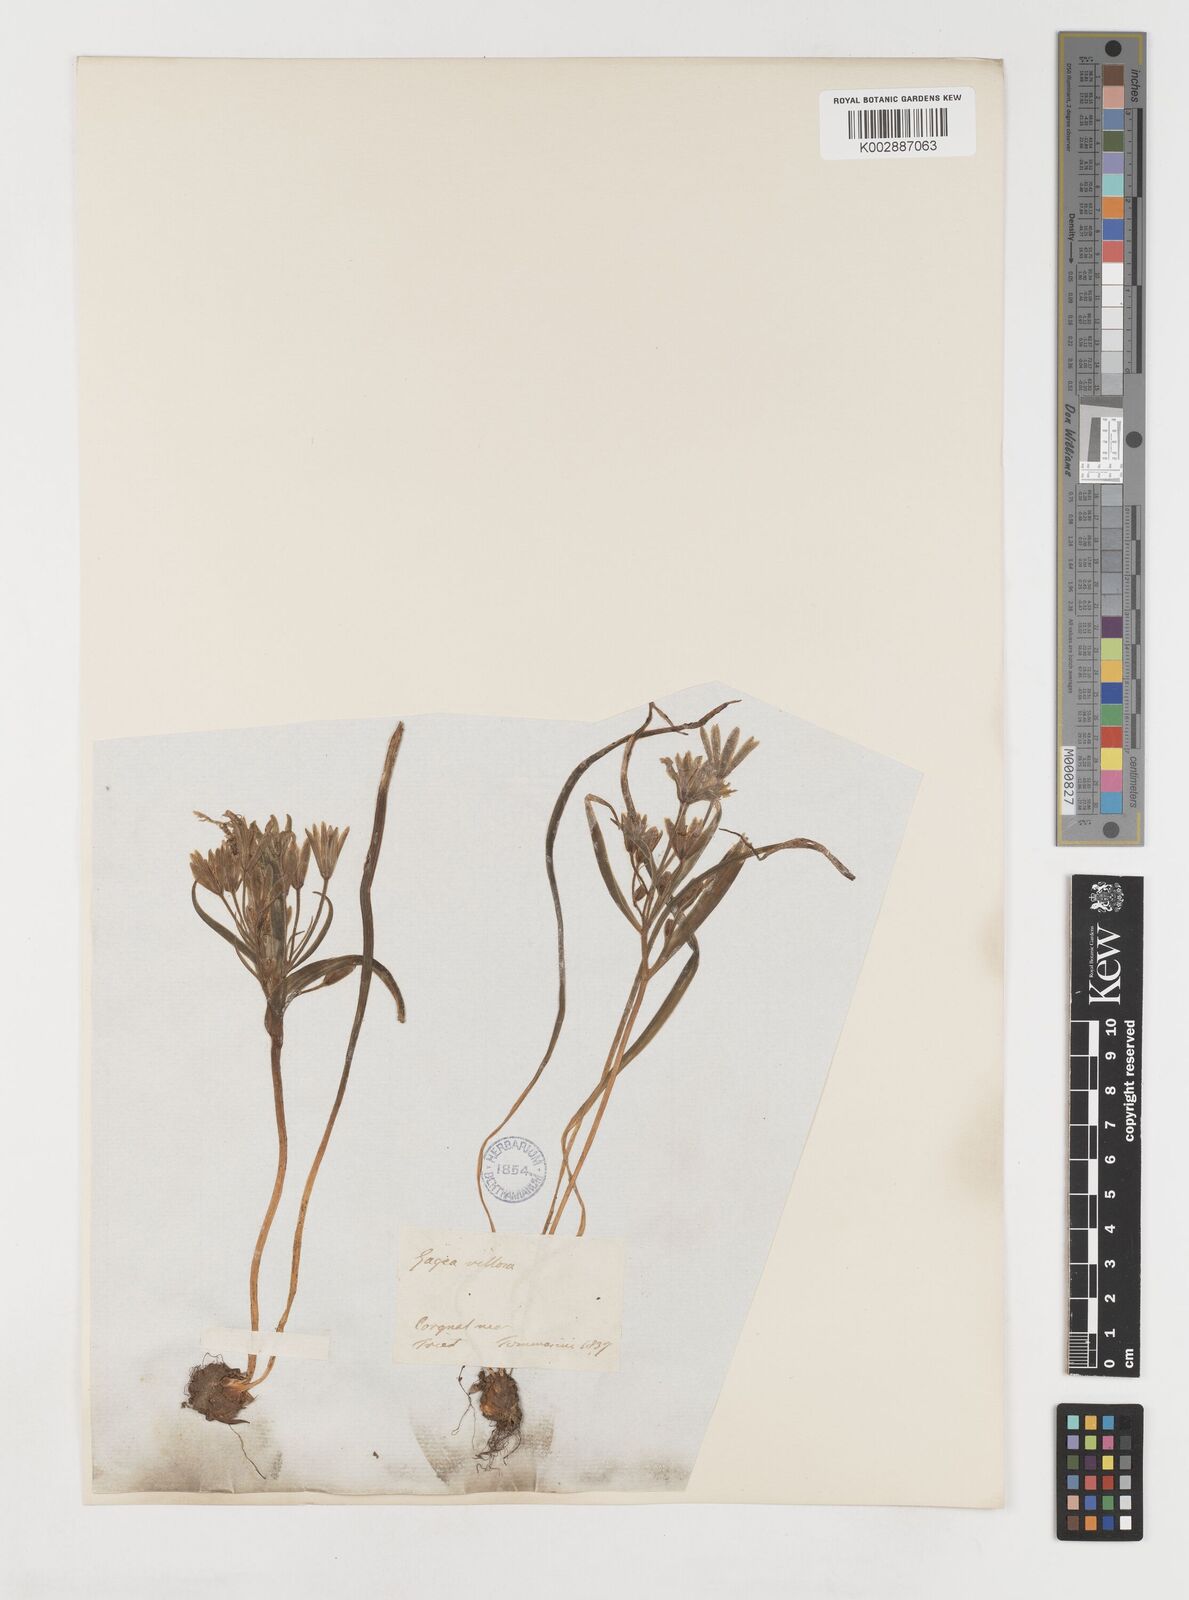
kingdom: Plantae
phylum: Tracheophyta
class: Liliopsida
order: Liliales
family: Liliaceae
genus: Gagea
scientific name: Gagea minima
